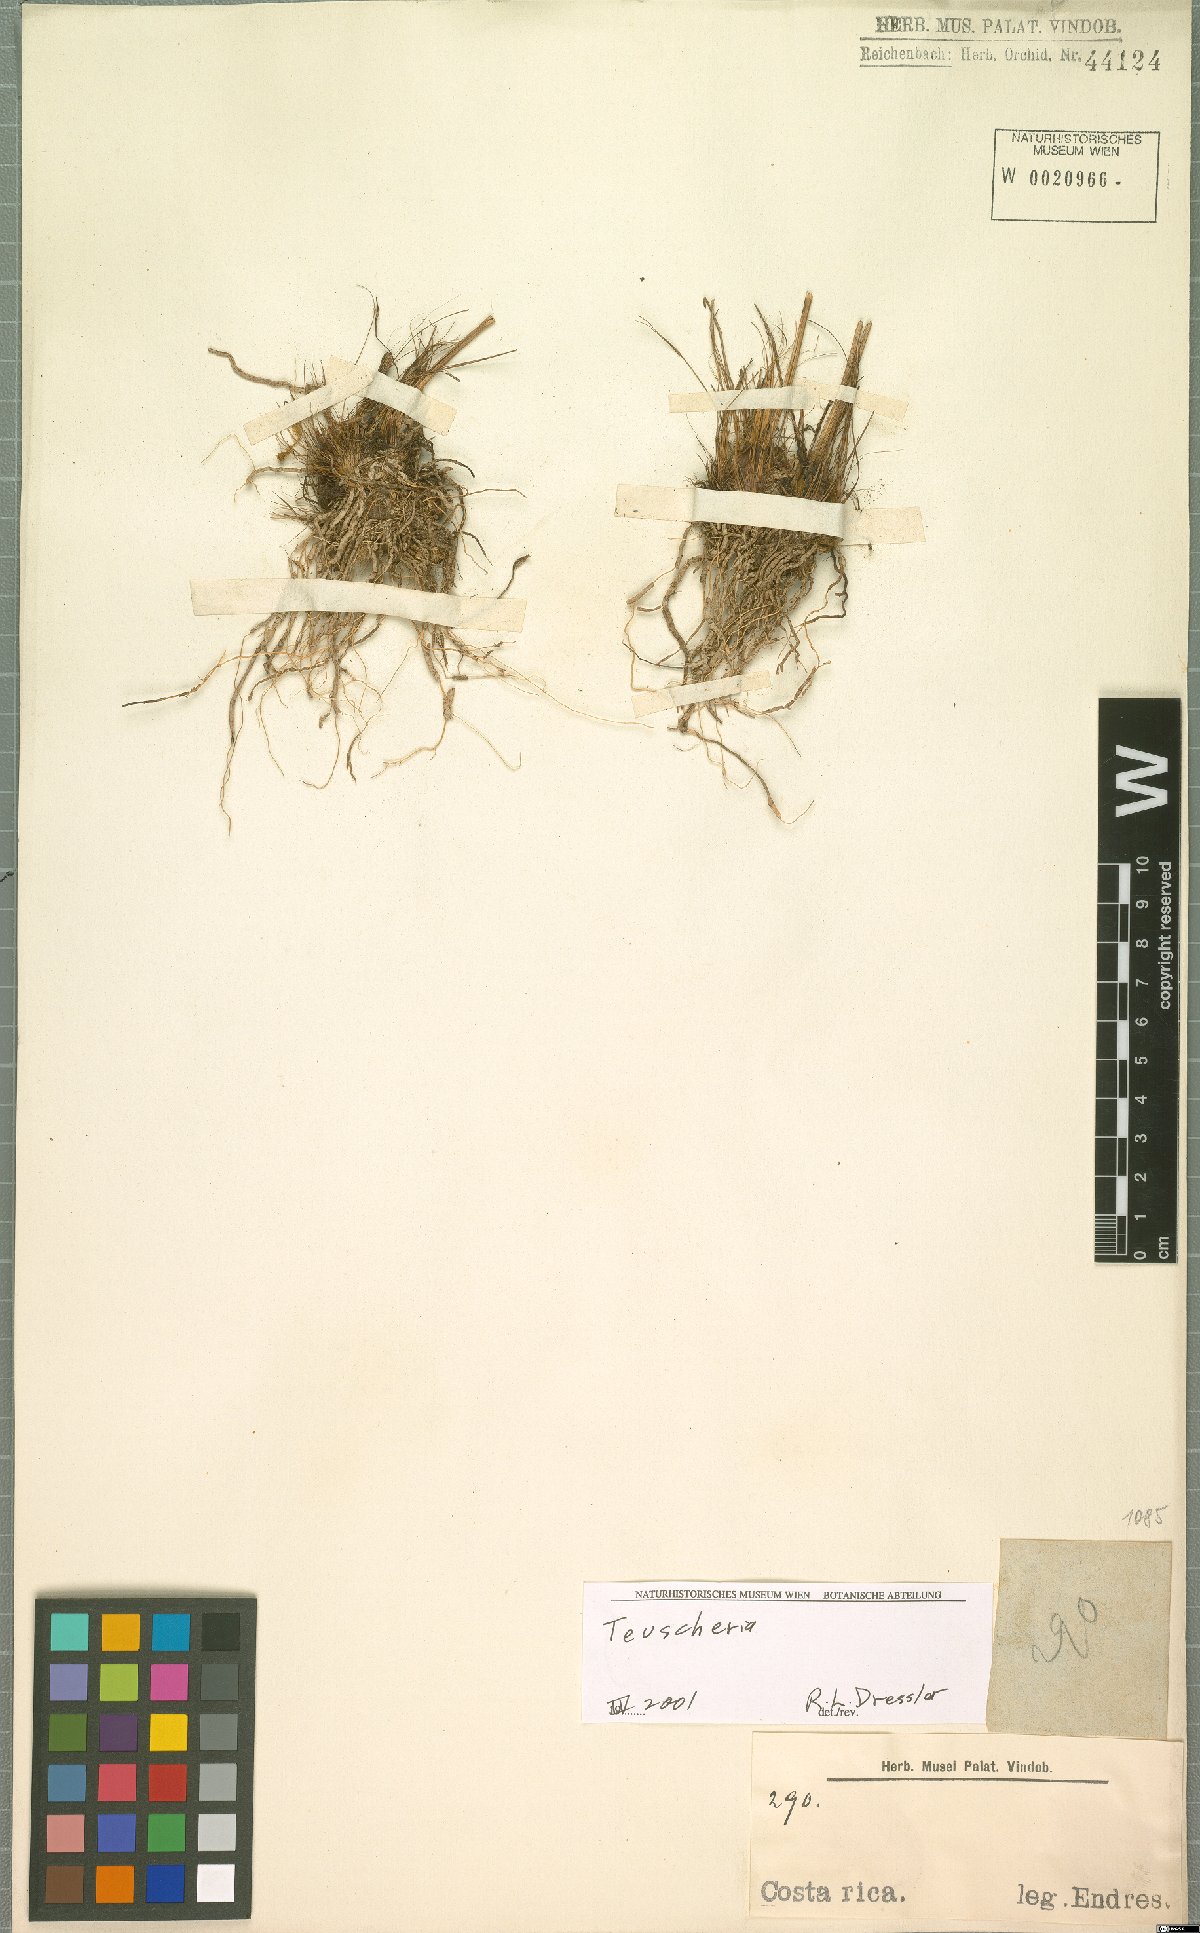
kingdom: Plantae
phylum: Tracheophyta
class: Liliopsida
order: Asparagales
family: Orchidaceae
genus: Teuscheria
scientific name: Teuscheria
